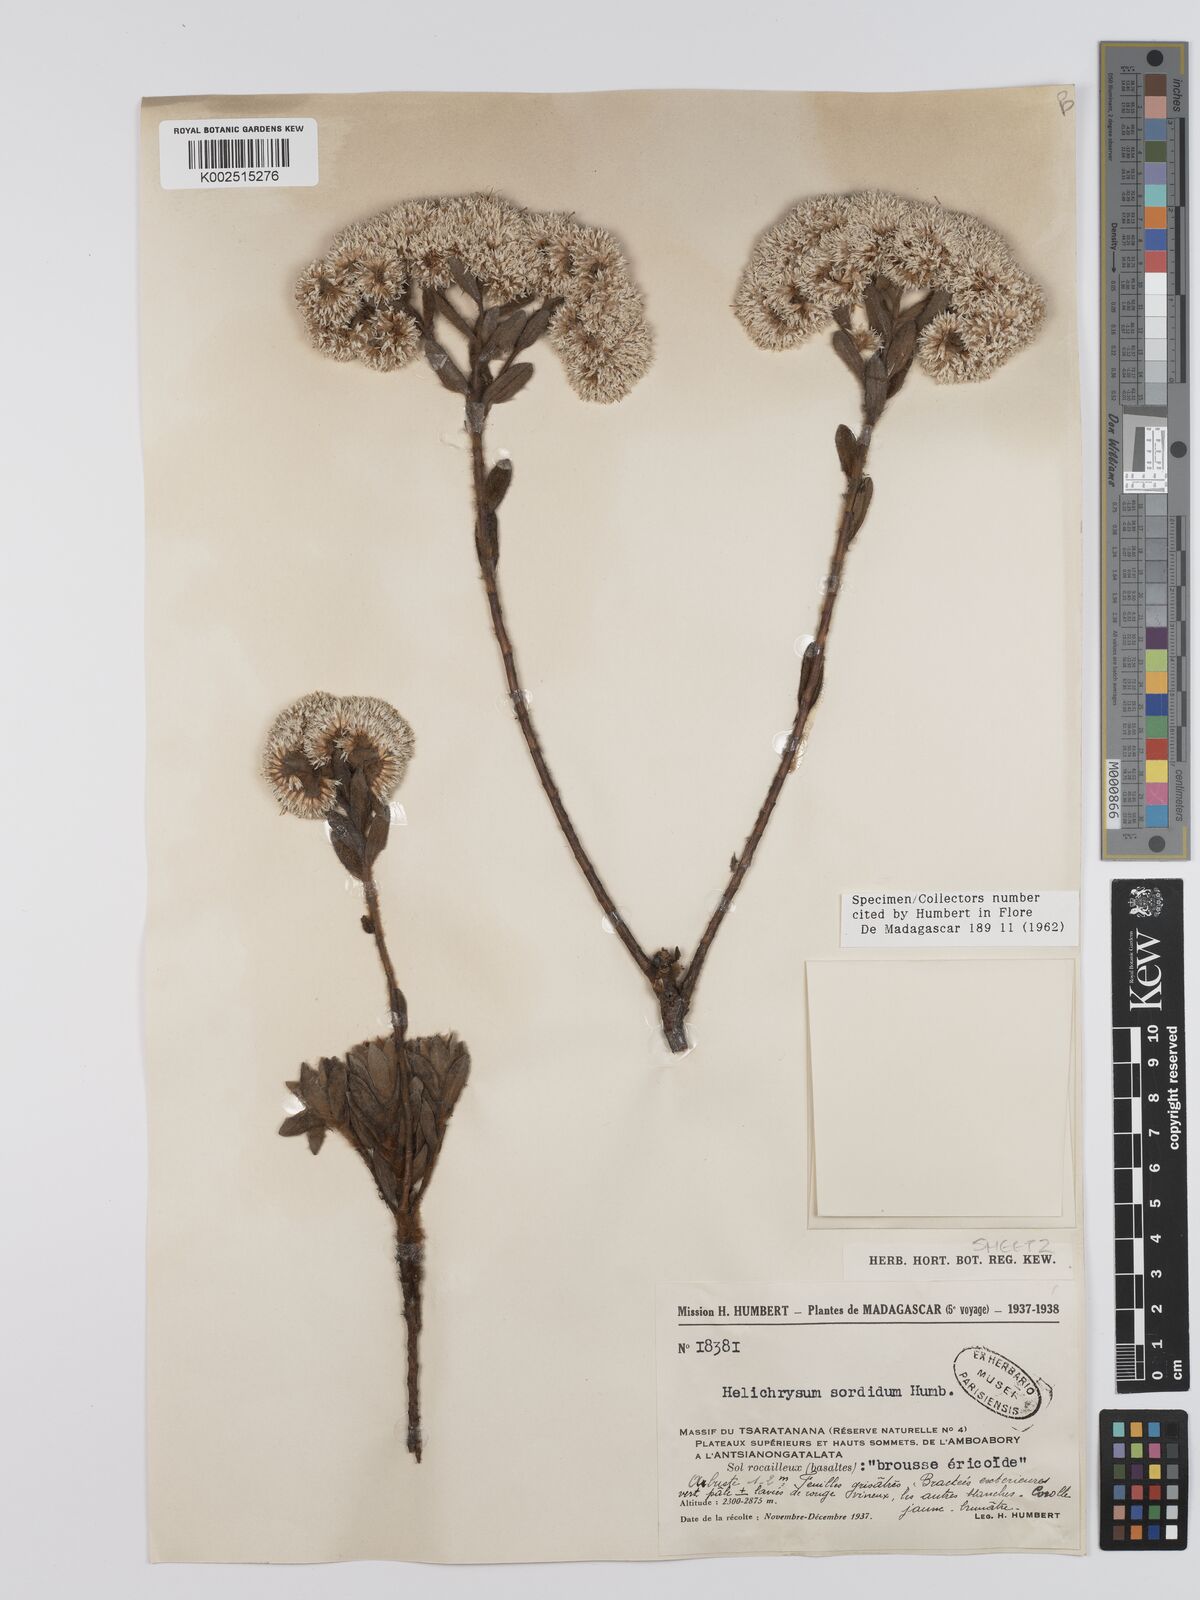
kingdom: Plantae
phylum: Tracheophyta
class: Magnoliopsida
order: Asterales
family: Asteraceae
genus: Helichrysum
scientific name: Helichrysum sordidum
